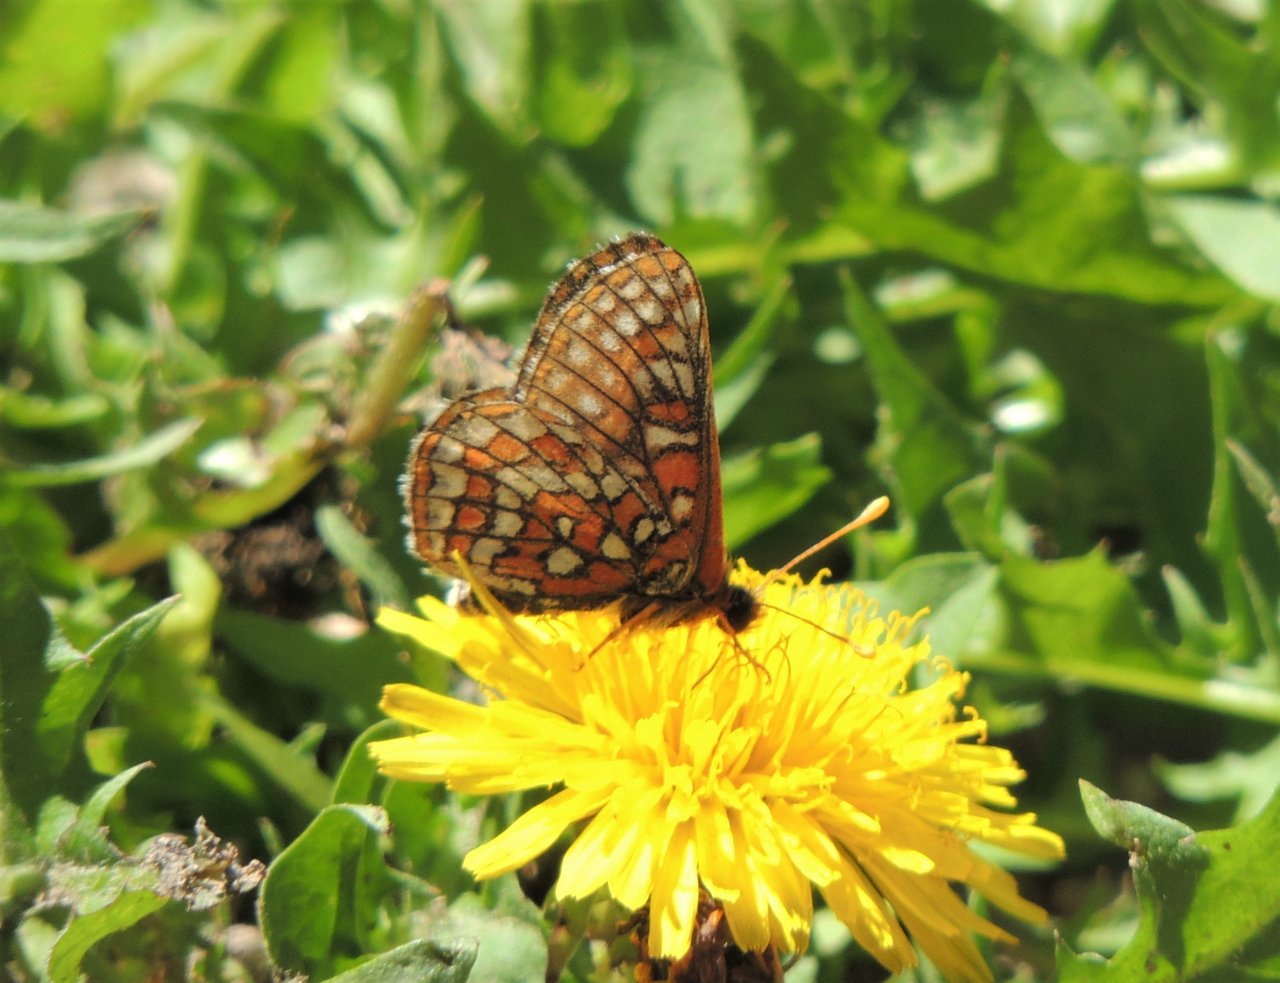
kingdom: Animalia
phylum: Arthropoda
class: Insecta
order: Lepidoptera
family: Nymphalidae
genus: Occidryas
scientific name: Occidryas anicia
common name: Anicia Checkerspot
